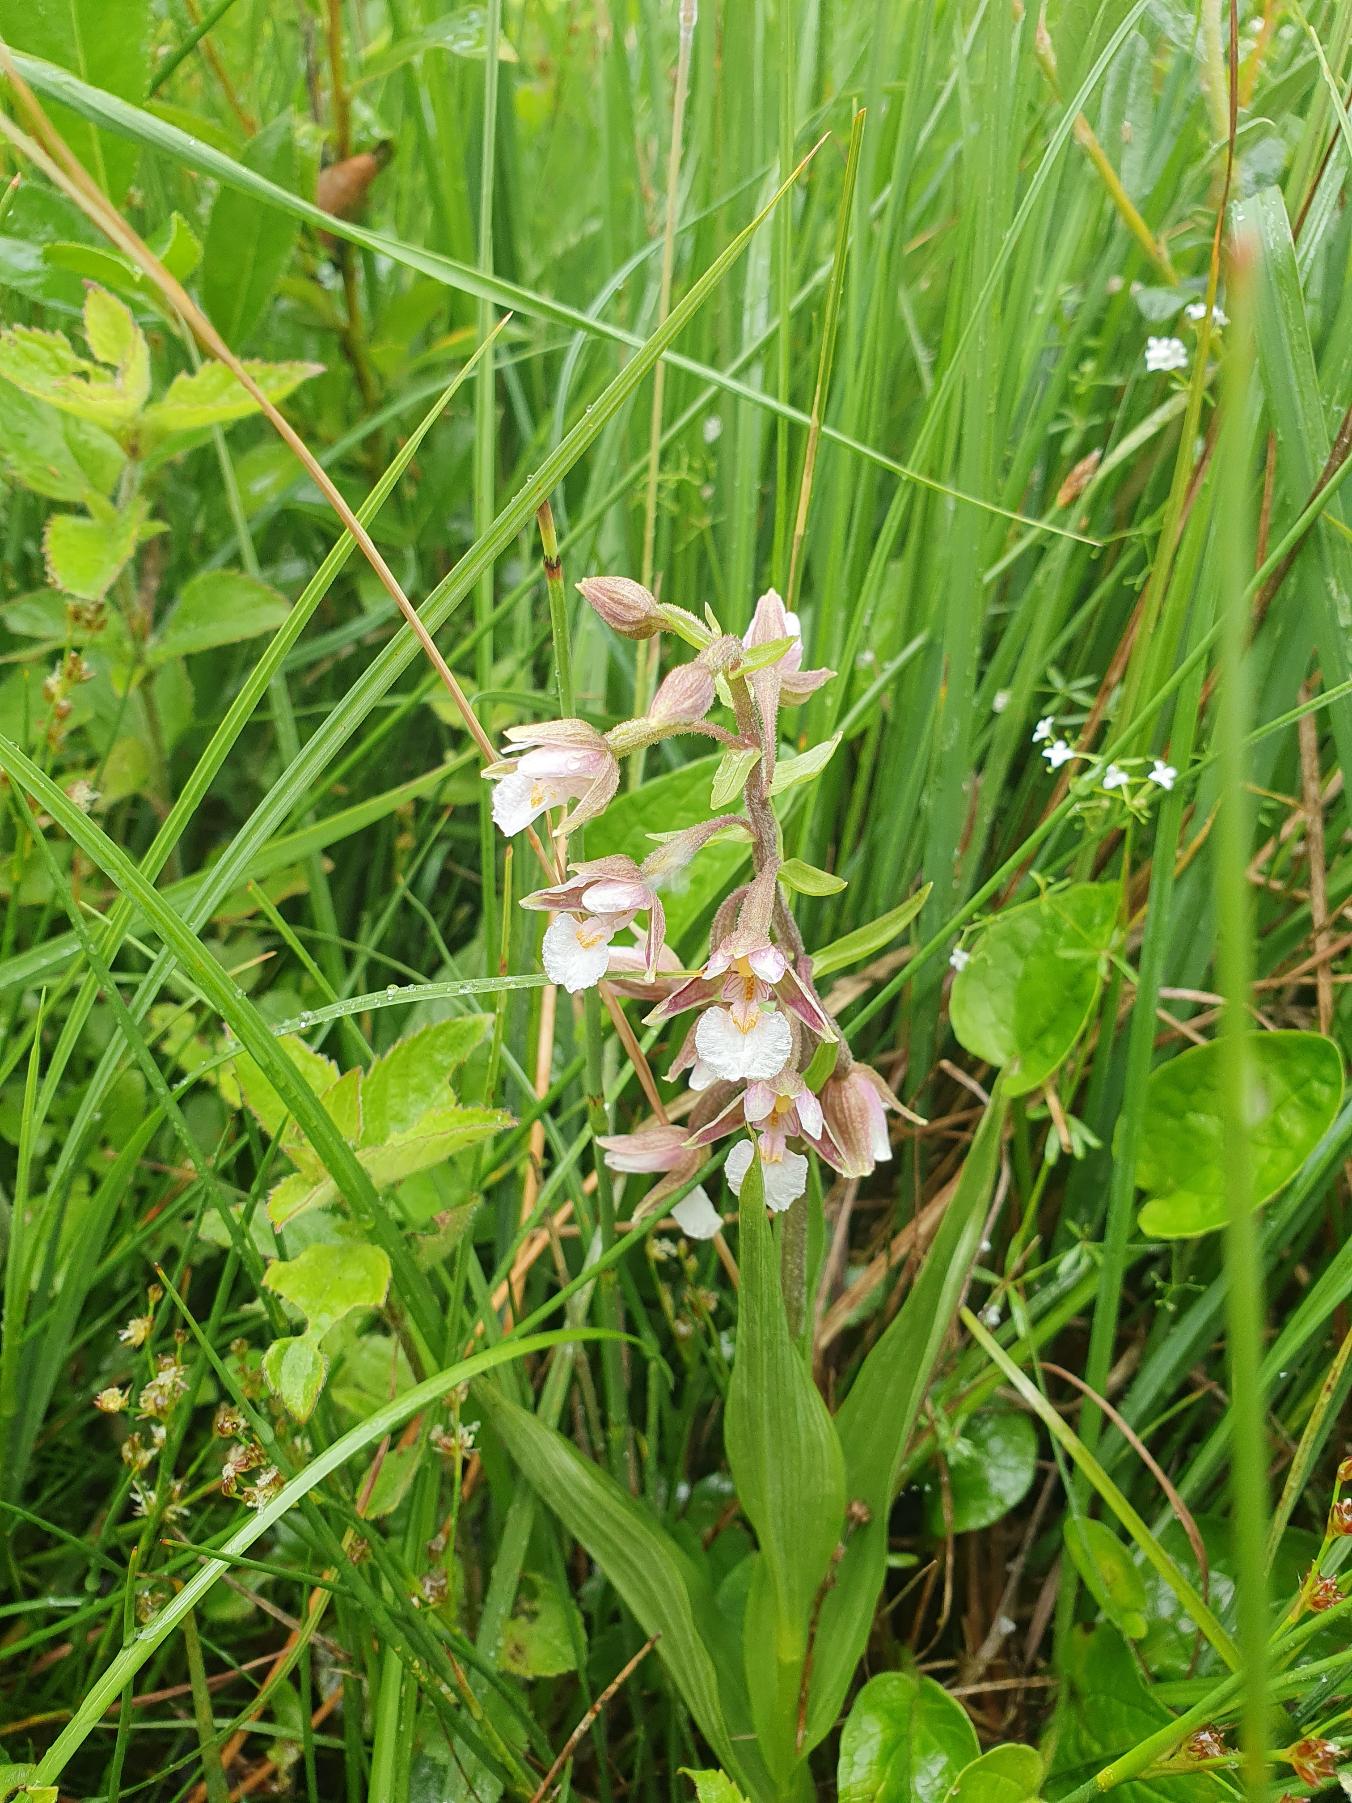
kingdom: Plantae
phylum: Tracheophyta
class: Liliopsida
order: Asparagales
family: Orchidaceae
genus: Epipactis
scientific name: Epipactis palustris
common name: Sump-hullæbe
